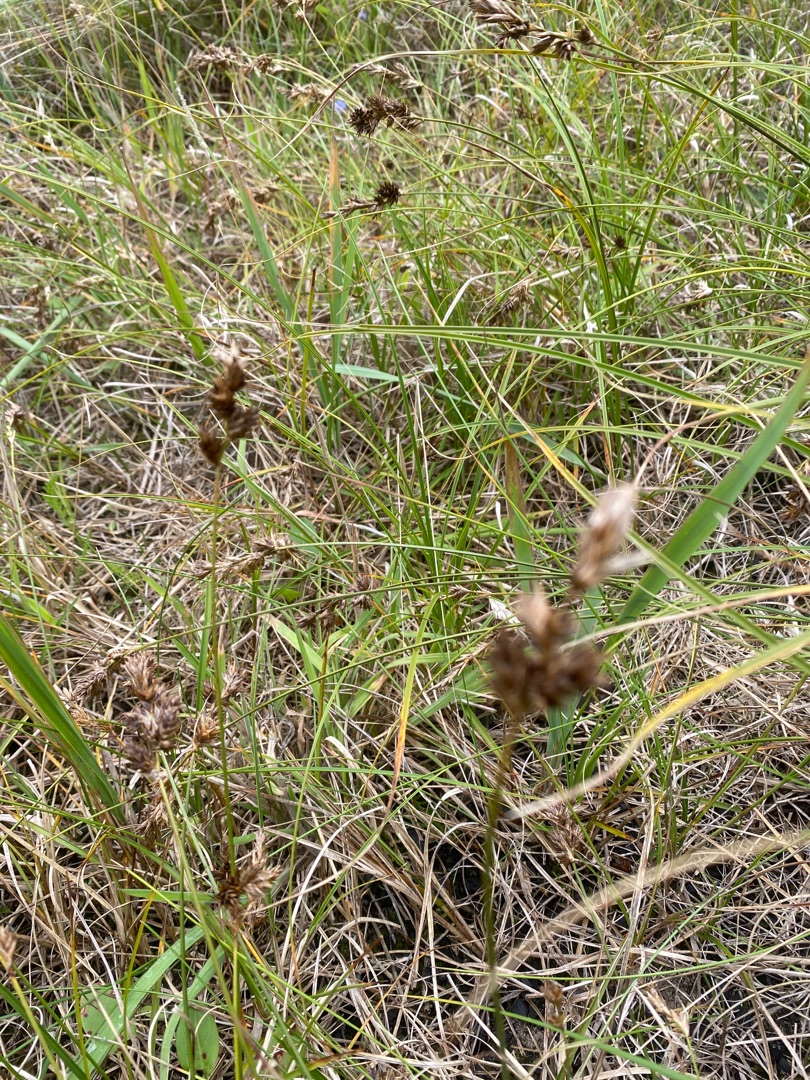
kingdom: Plantae
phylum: Tracheophyta
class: Liliopsida
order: Poales
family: Cyperaceae
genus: Carex
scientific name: Carex arenaria
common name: Sand-star
